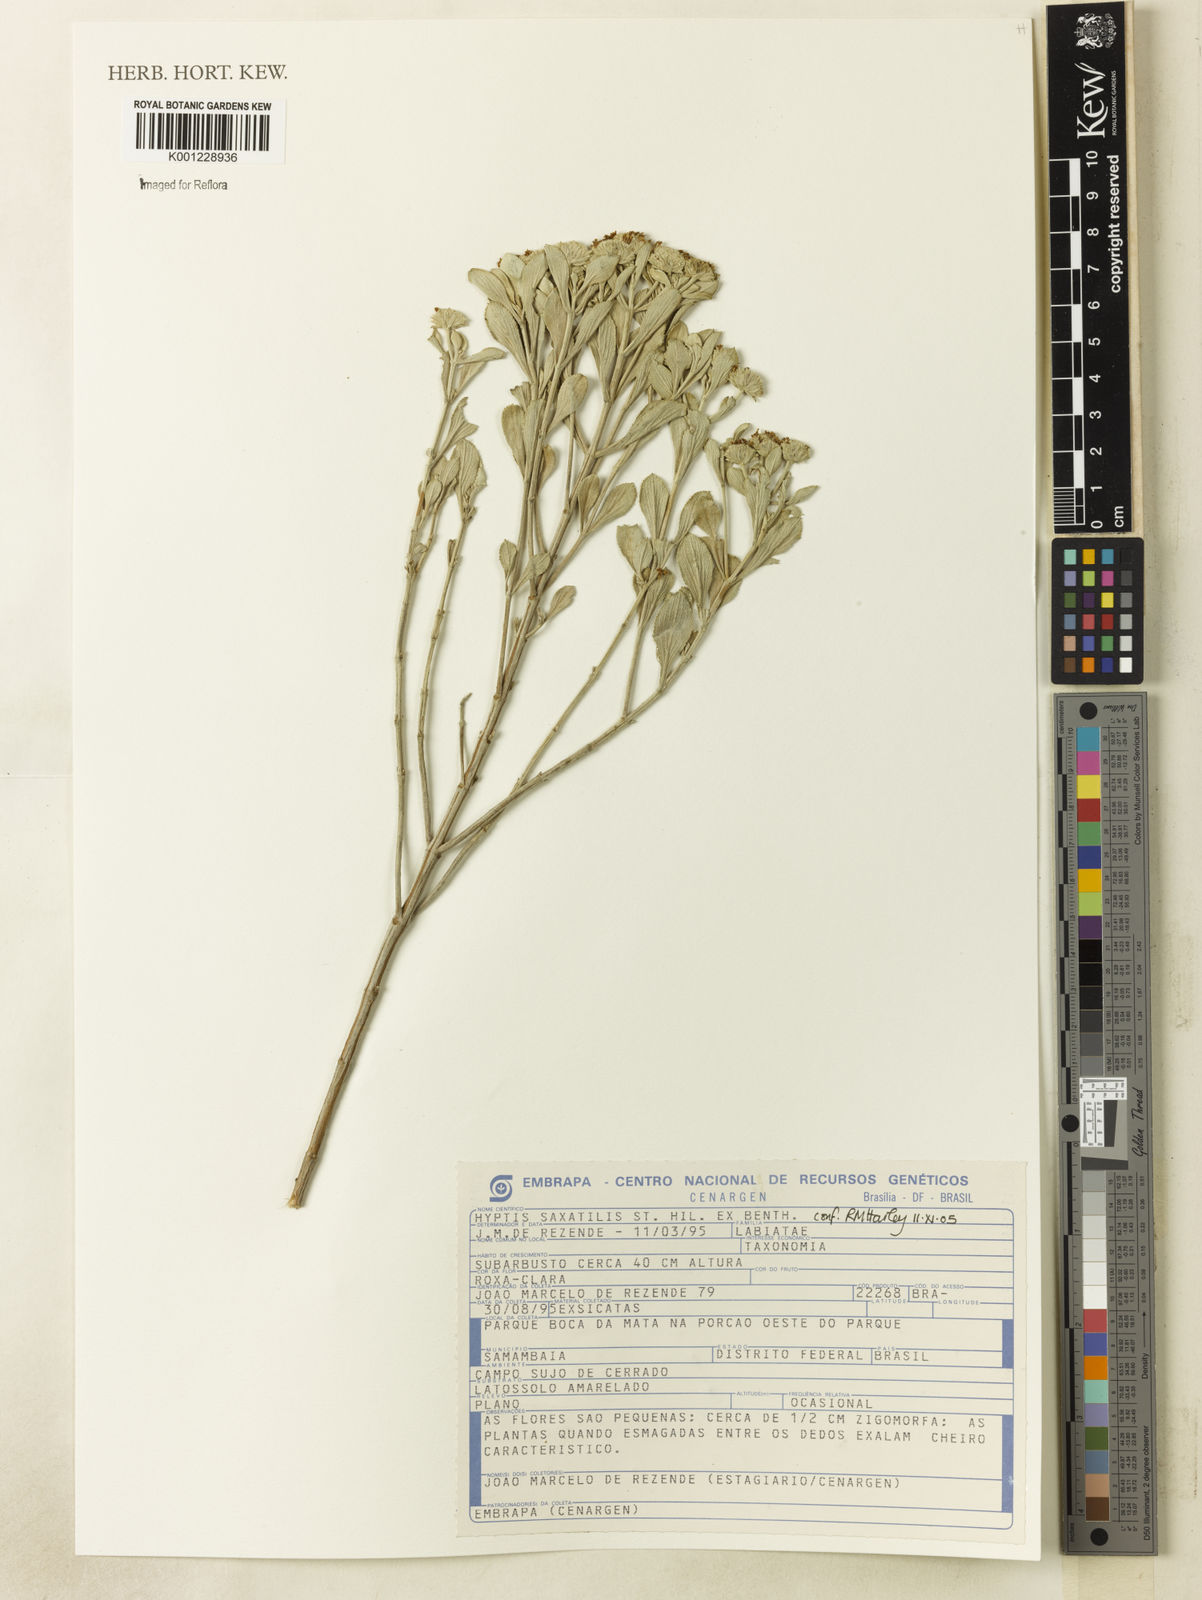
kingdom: Plantae
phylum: Tracheophyta
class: Magnoliopsida
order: Lamiales
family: Lamiaceae
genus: Hyptis
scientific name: Hyptis saxatilis
